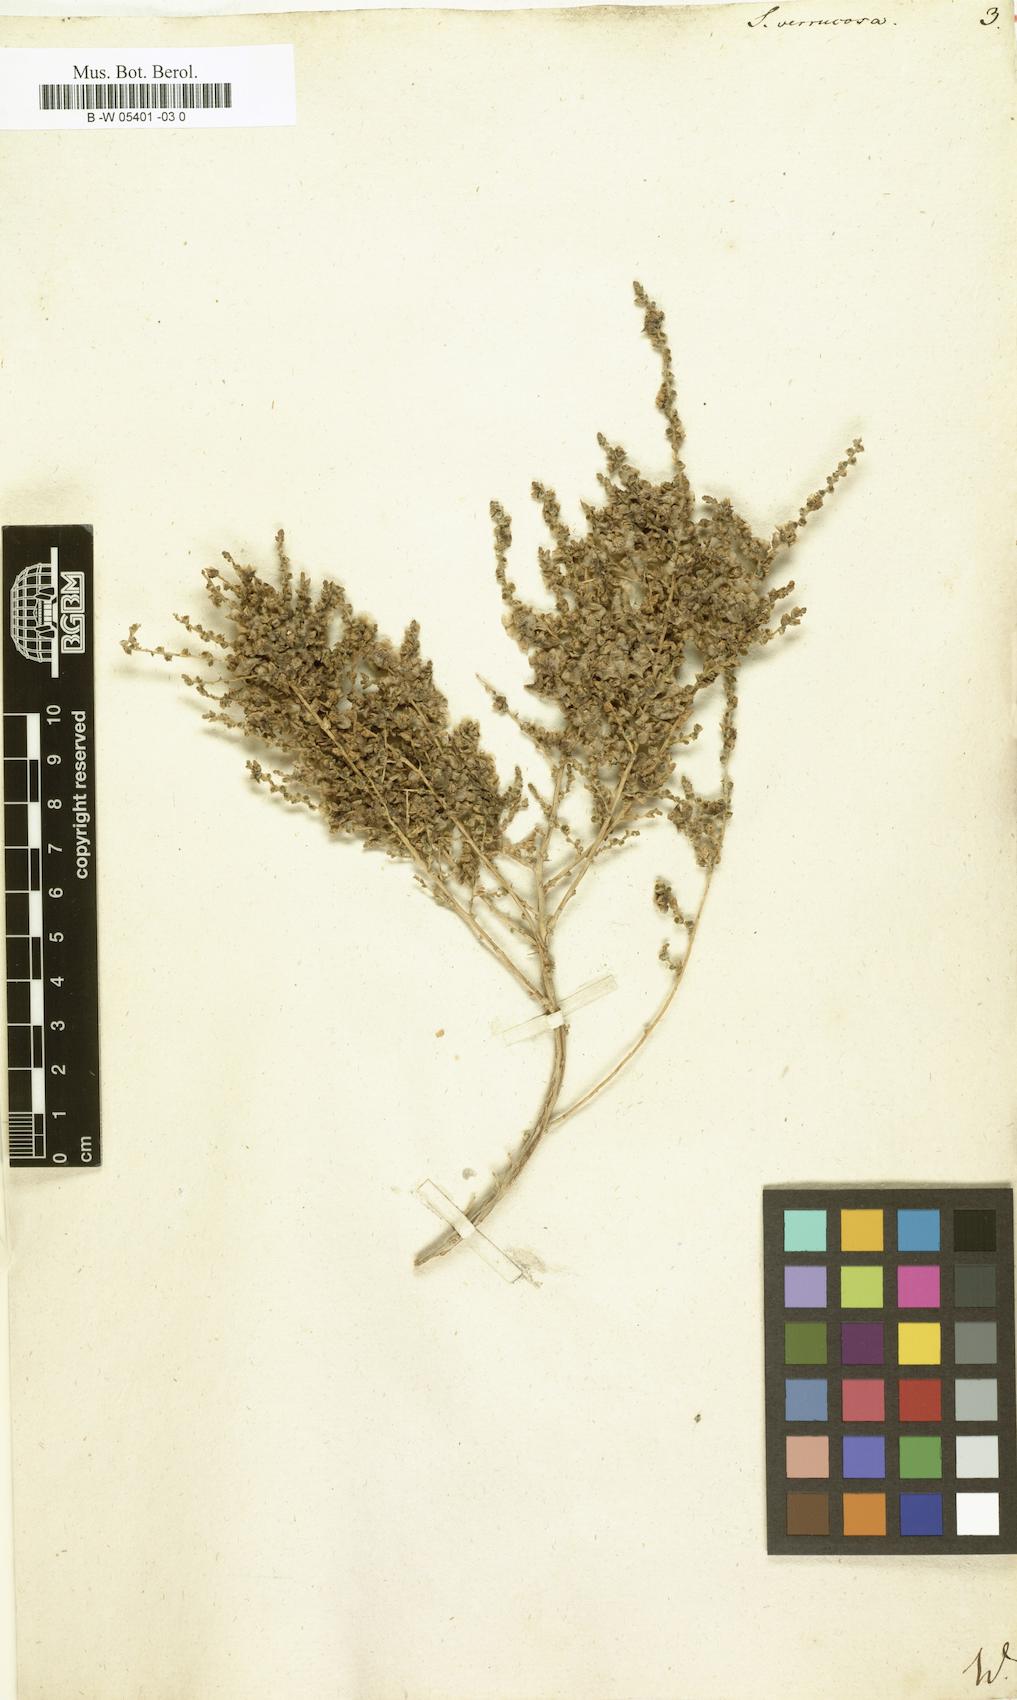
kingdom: Plantae
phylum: Tracheophyta
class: Magnoliopsida
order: Caryophyllales
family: Amaranthaceae
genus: Nitrosalsola
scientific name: Nitrosalsola dendroides
